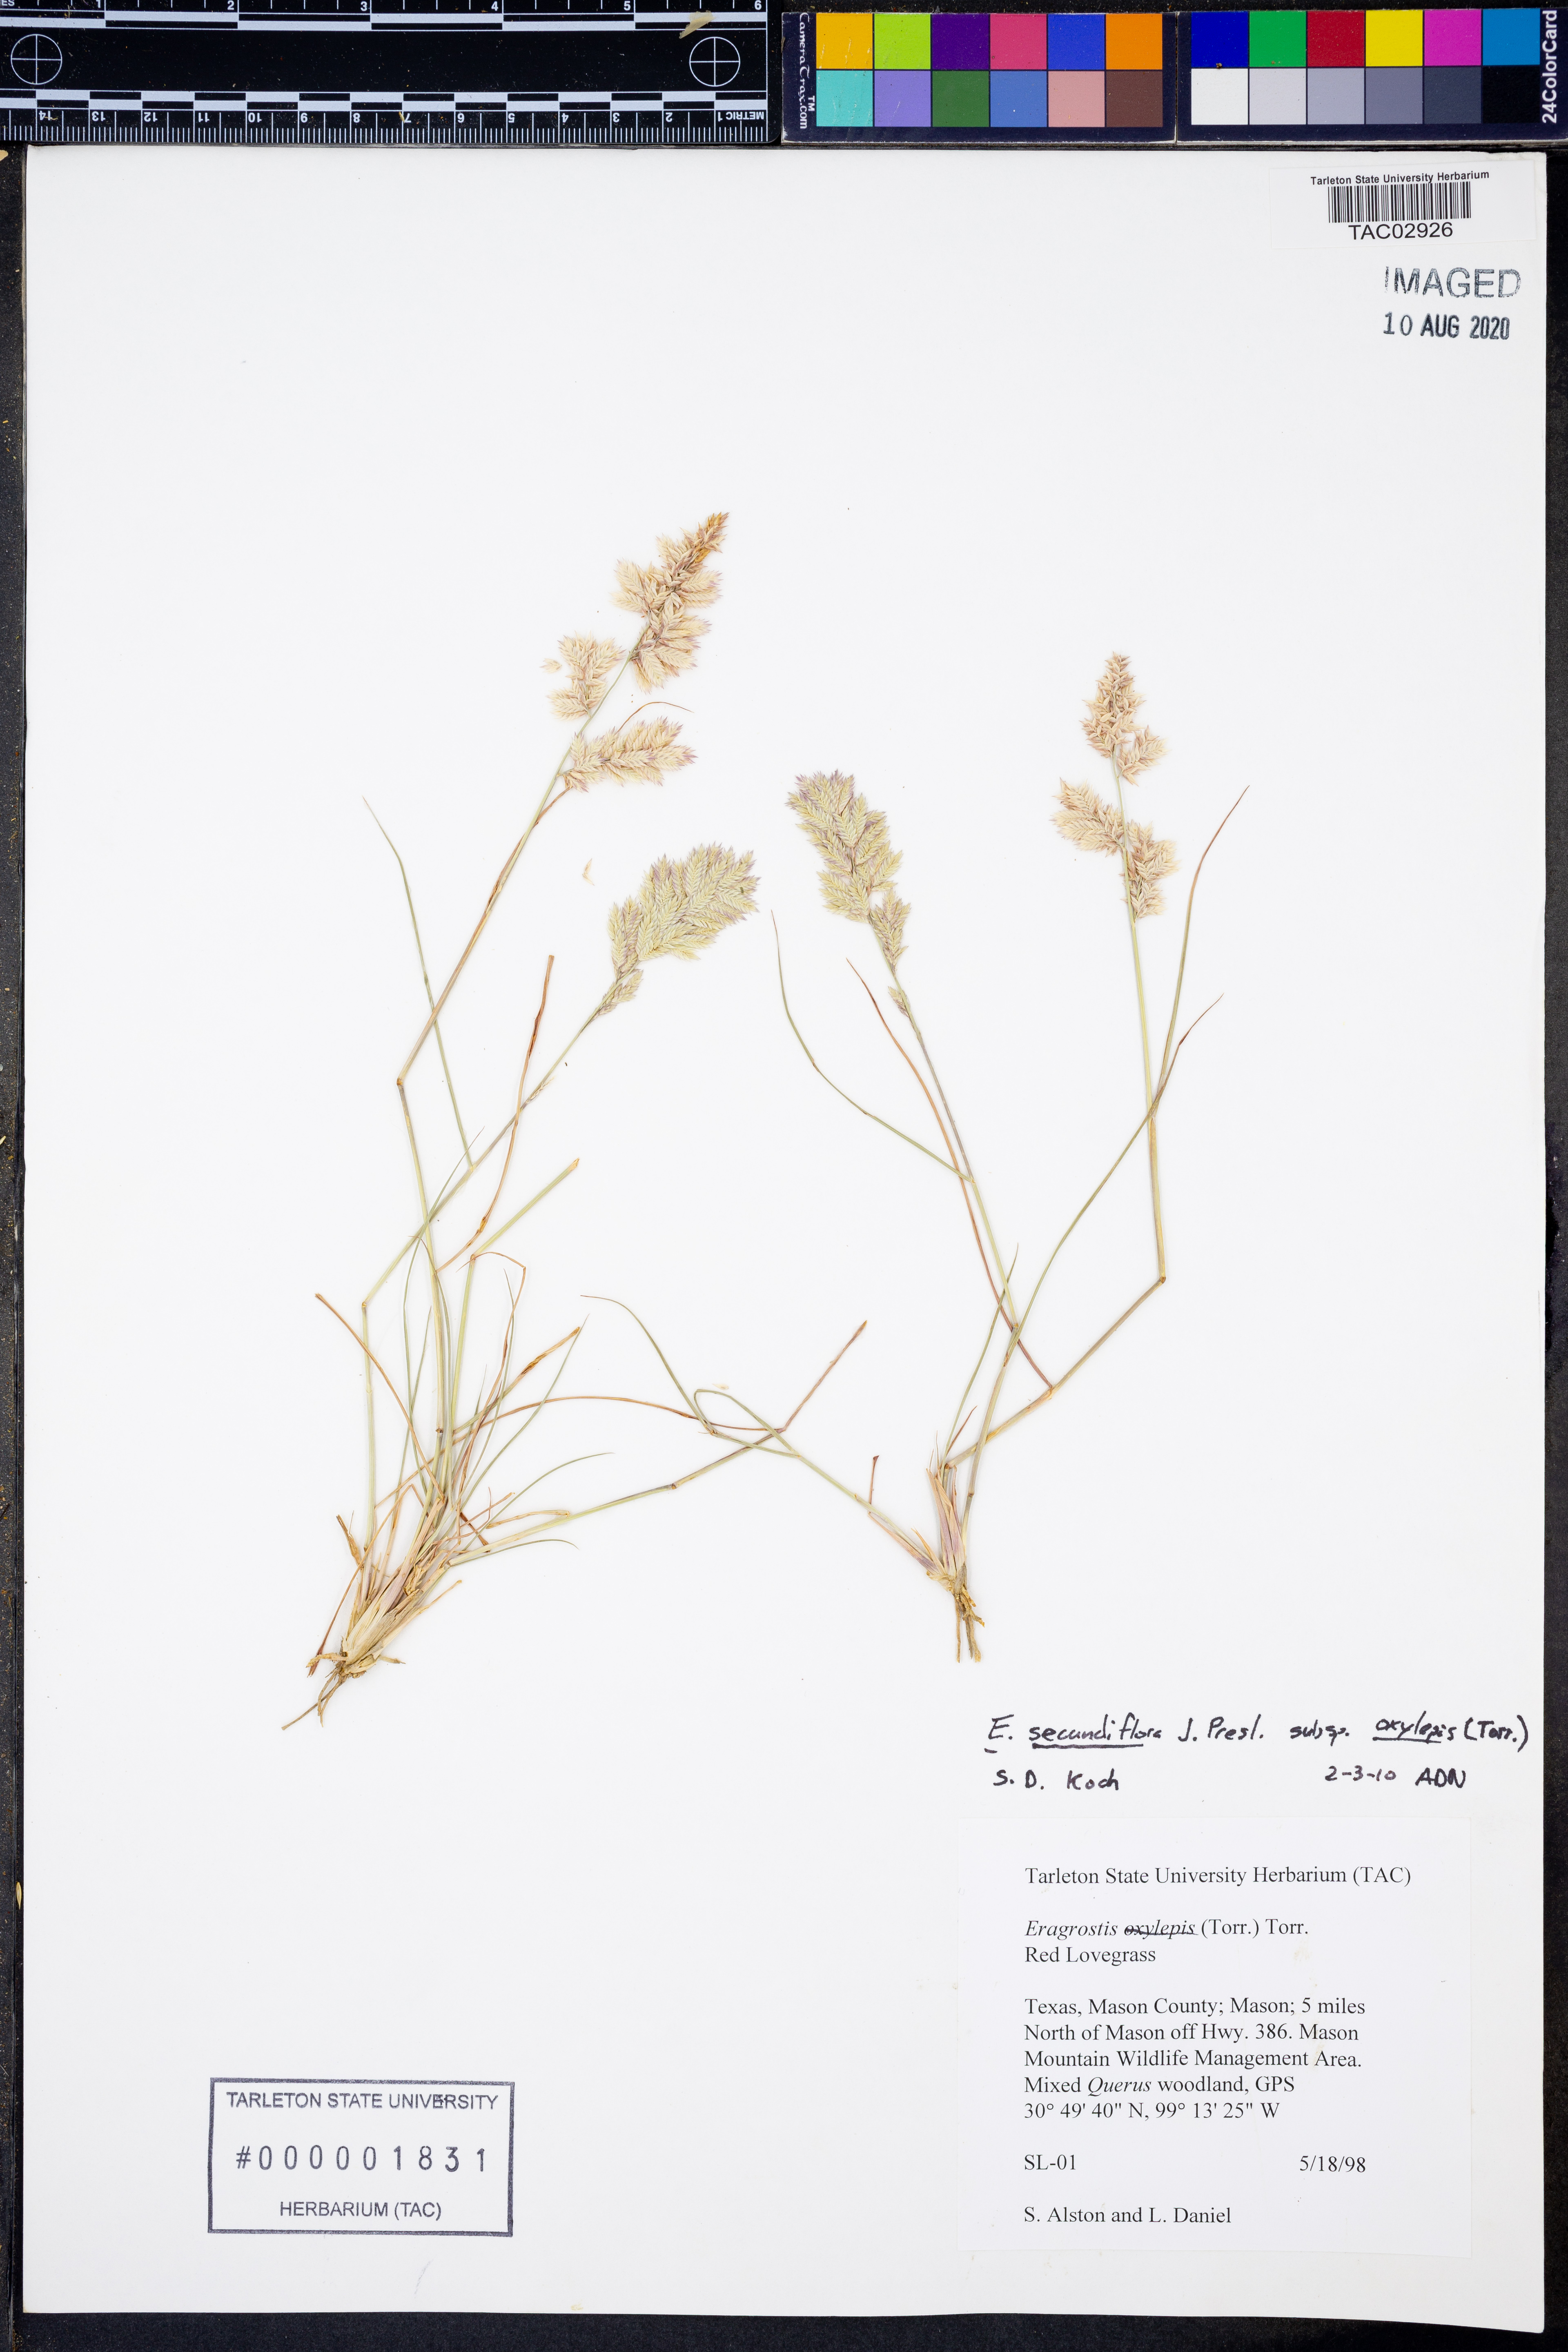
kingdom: Plantae
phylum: Tracheophyta
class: Liliopsida
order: Poales
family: Poaceae
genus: Eragrostis
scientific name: Eragrostis secundiflora
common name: Red love grass
